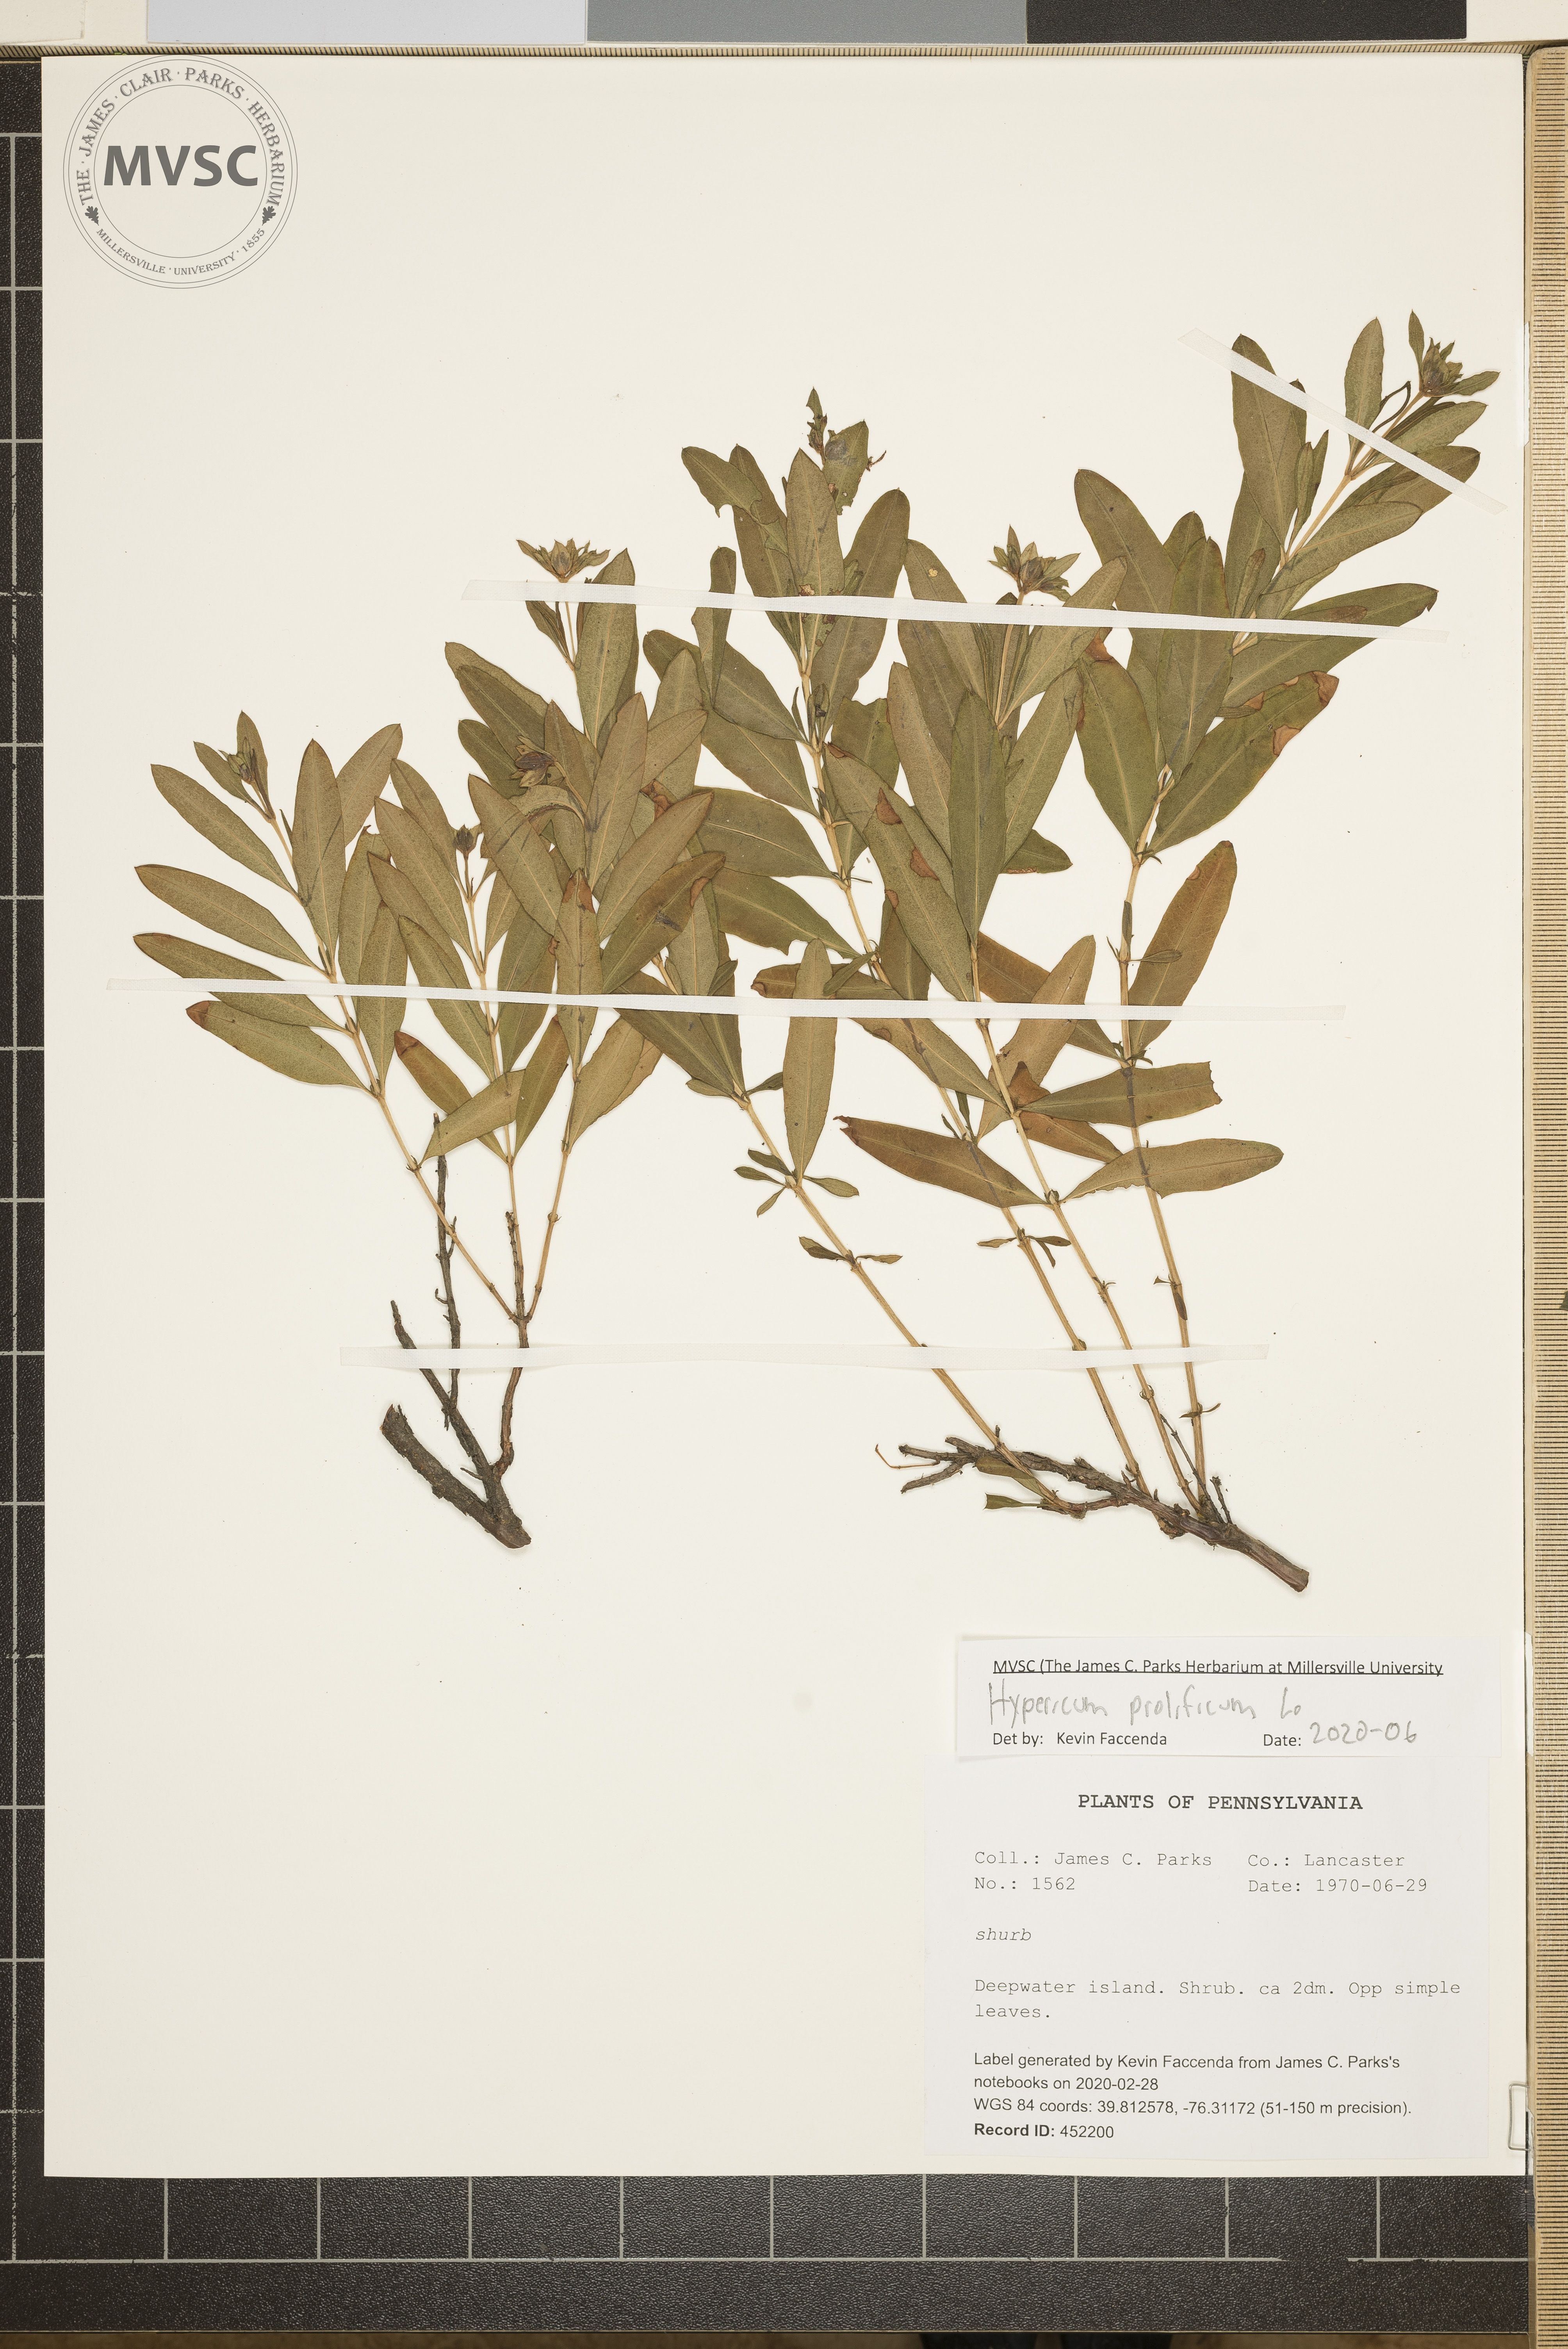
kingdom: Plantae
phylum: Tracheophyta
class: Magnoliopsida
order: Malpighiales
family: Hypericaceae
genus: Hypericum
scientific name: Hypericum prolificum
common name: Shrubby st. john's-wort
